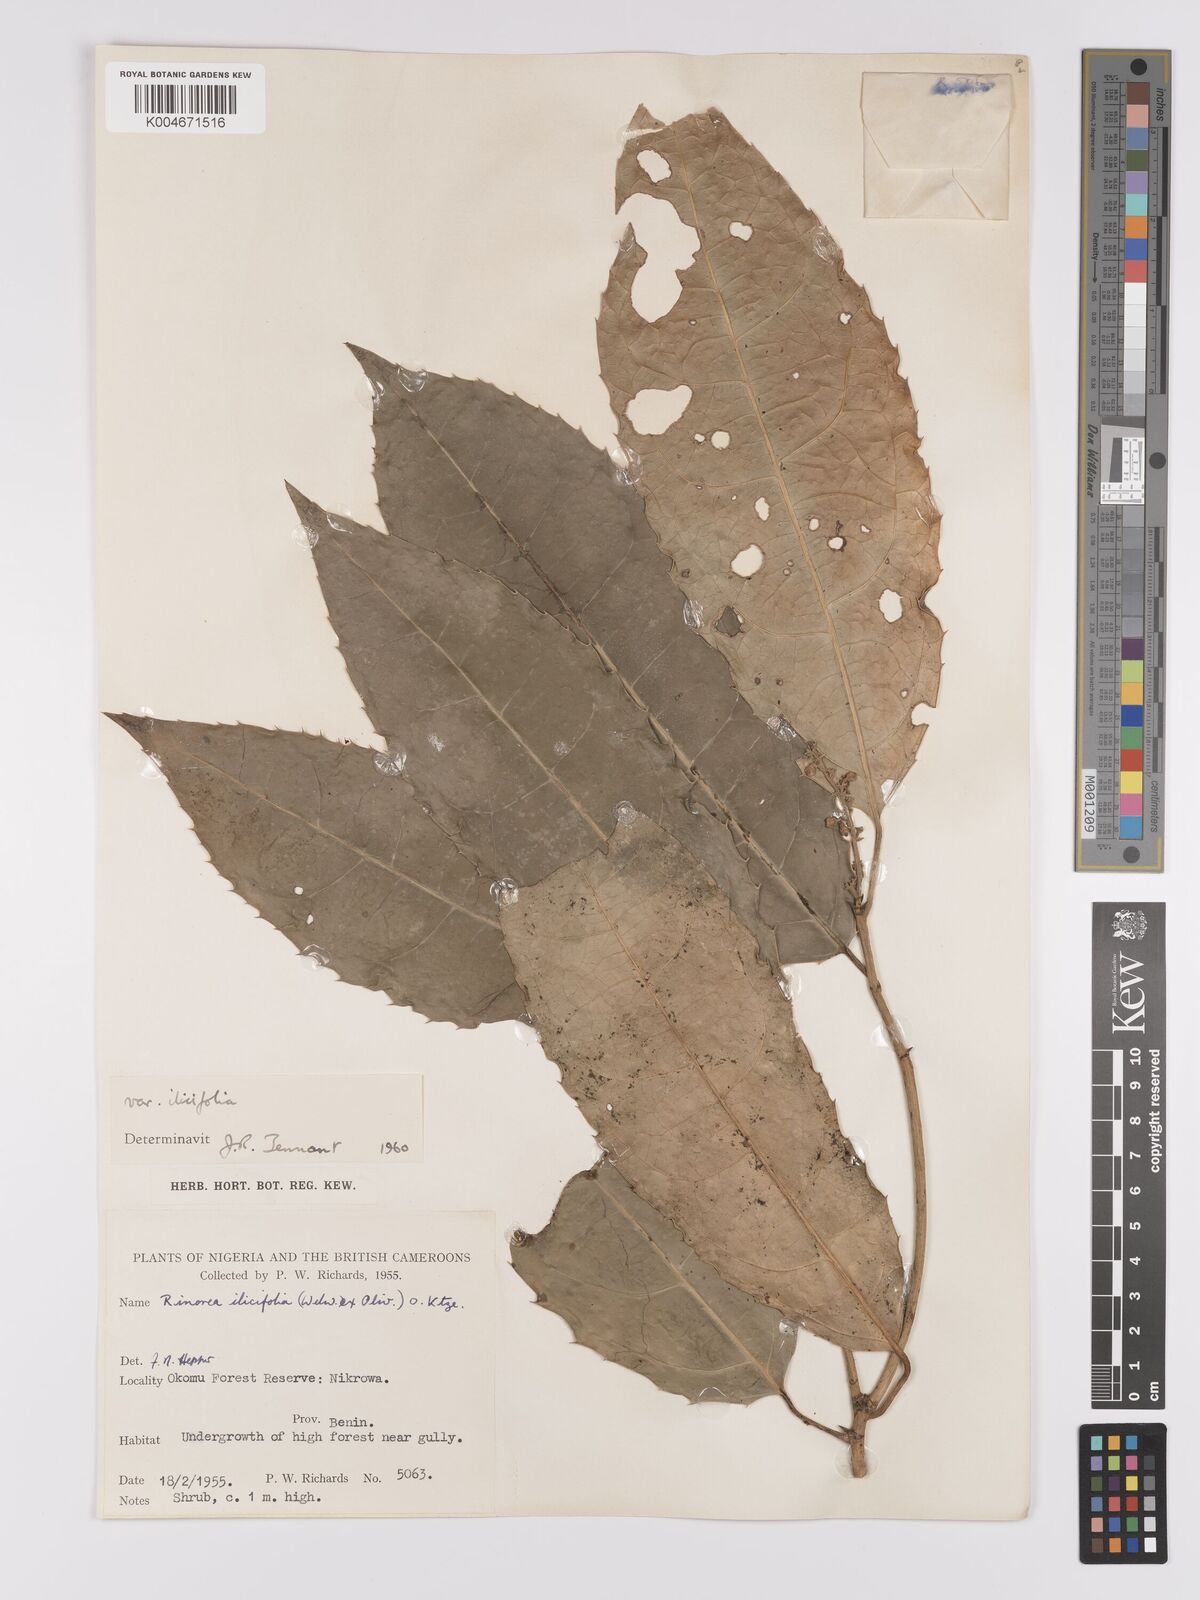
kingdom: Plantae
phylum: Tracheophyta
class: Magnoliopsida
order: Malpighiales
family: Violaceae
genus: Rinorea
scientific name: Rinorea ilicifolia
